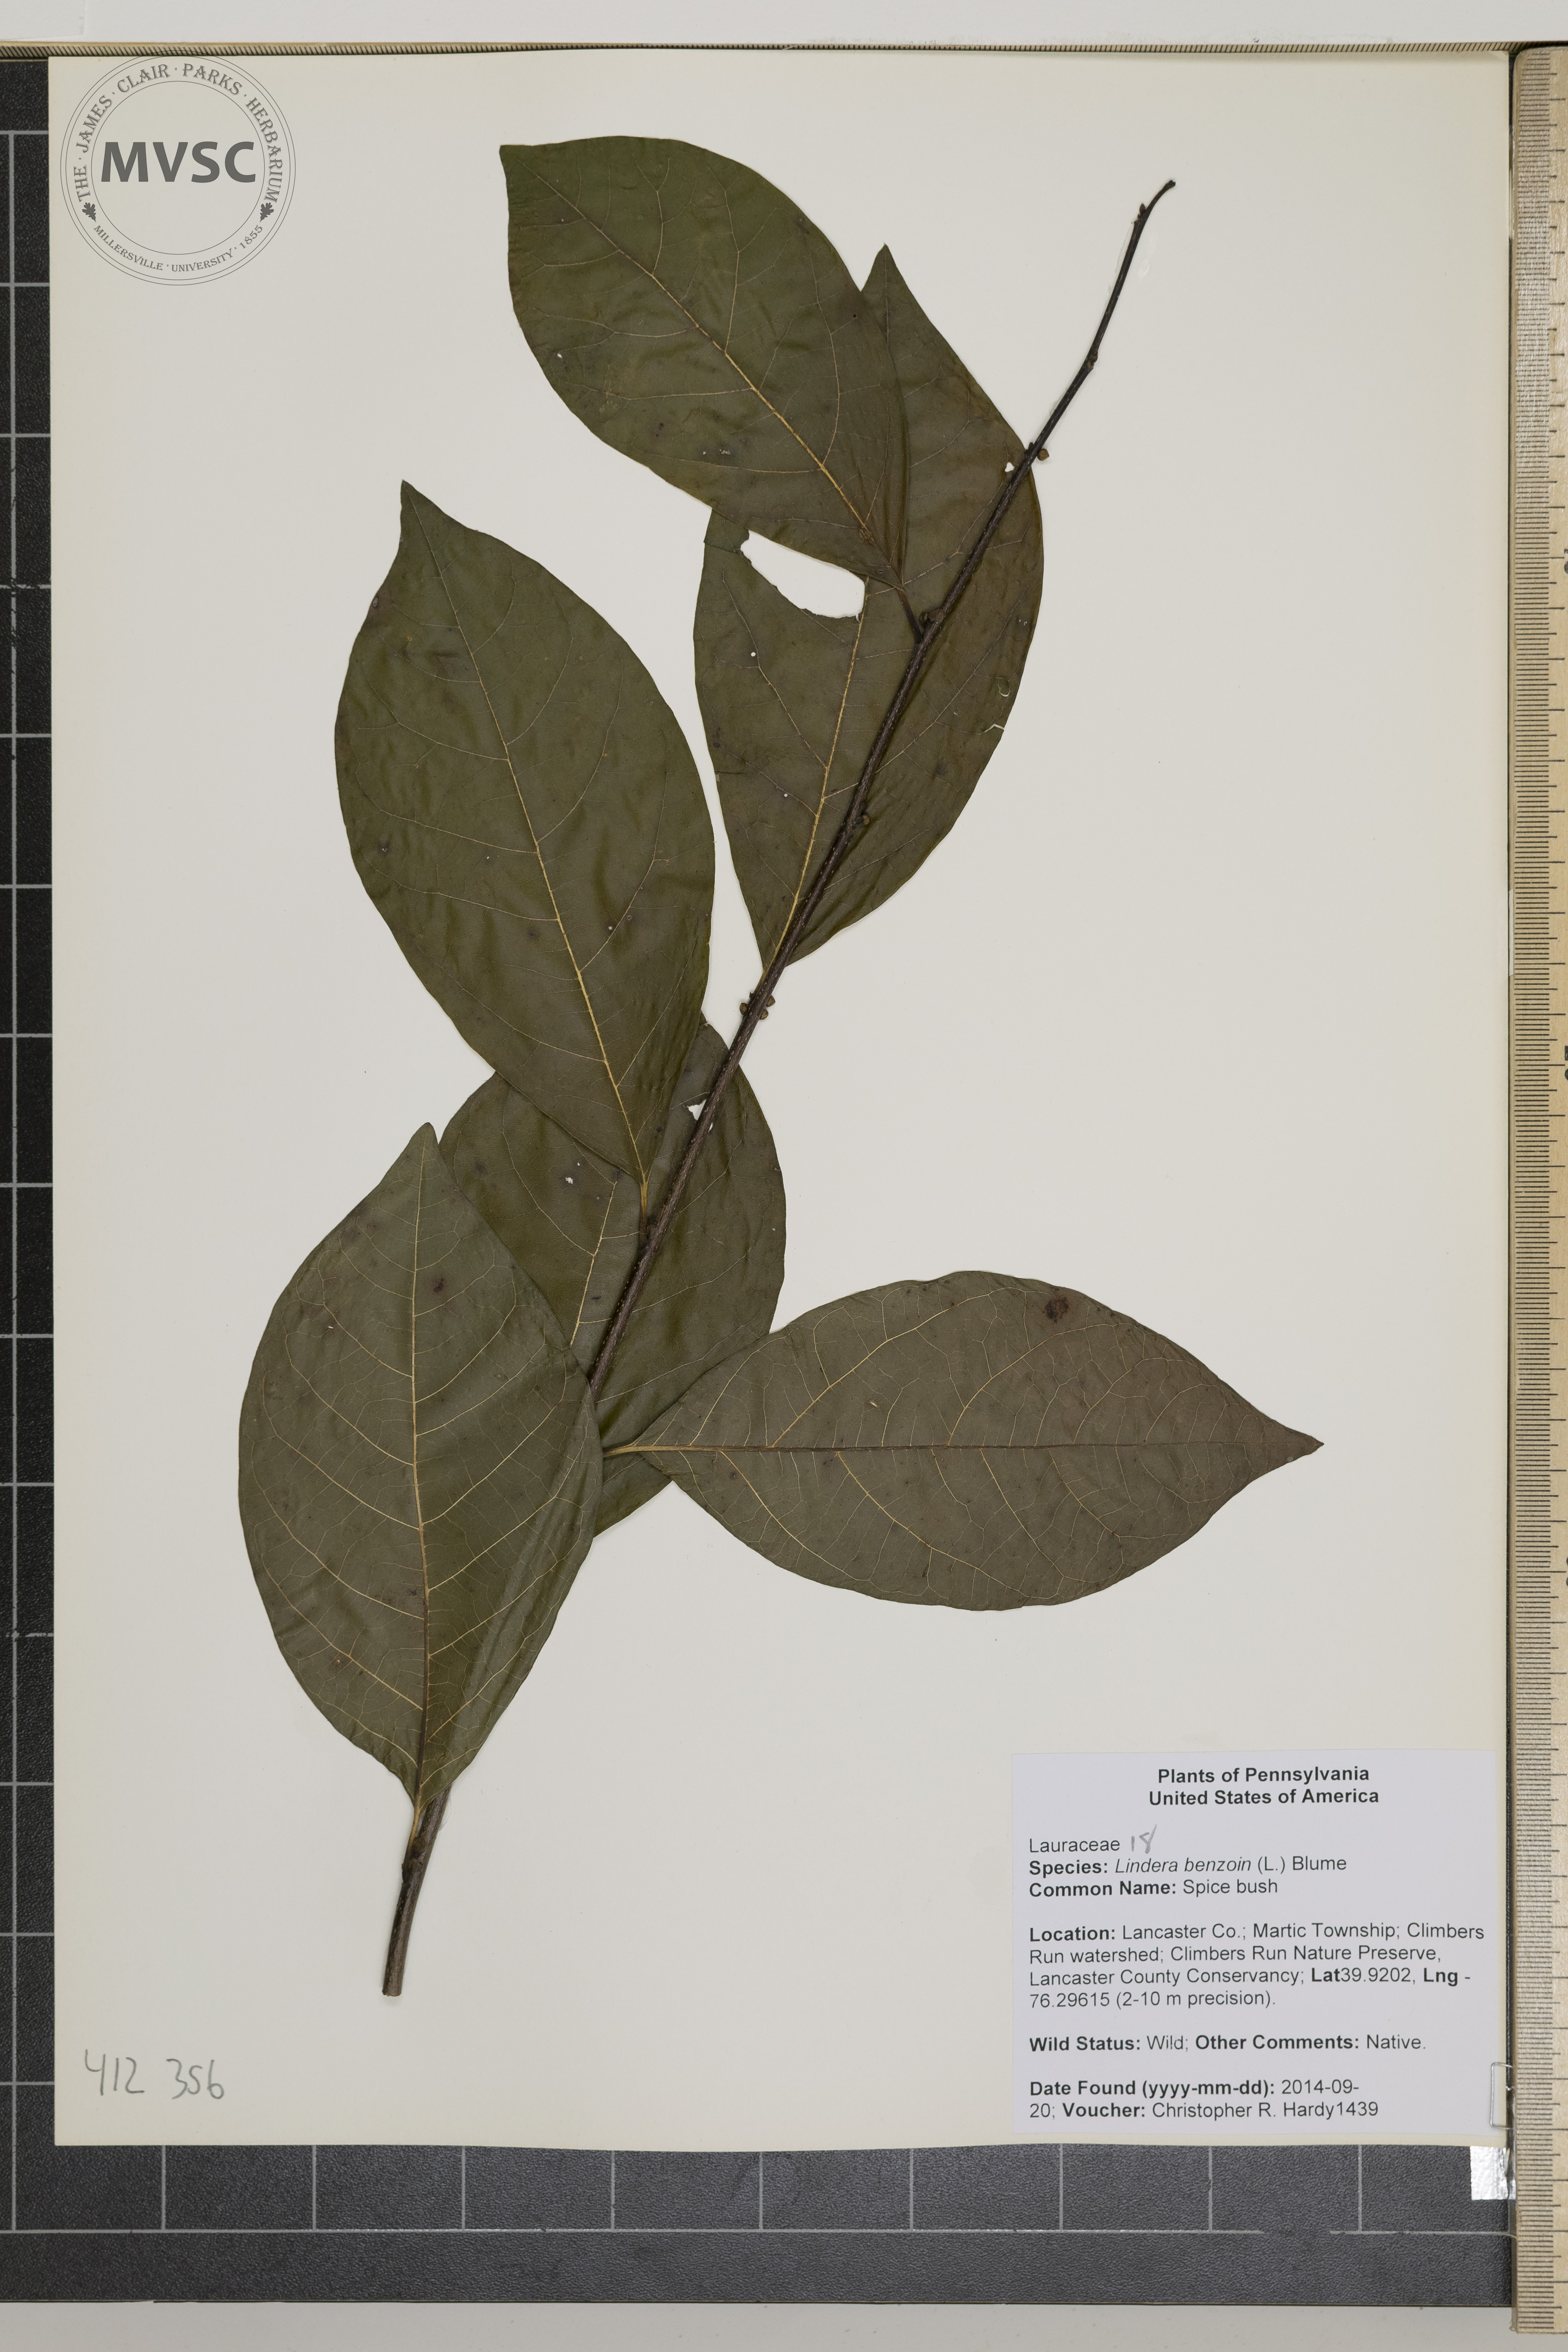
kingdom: Plantae
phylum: Tracheophyta
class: Magnoliopsida
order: Laurales
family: Lauraceae
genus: Lindera
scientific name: Lindera benzoin
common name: Northern spicebush
